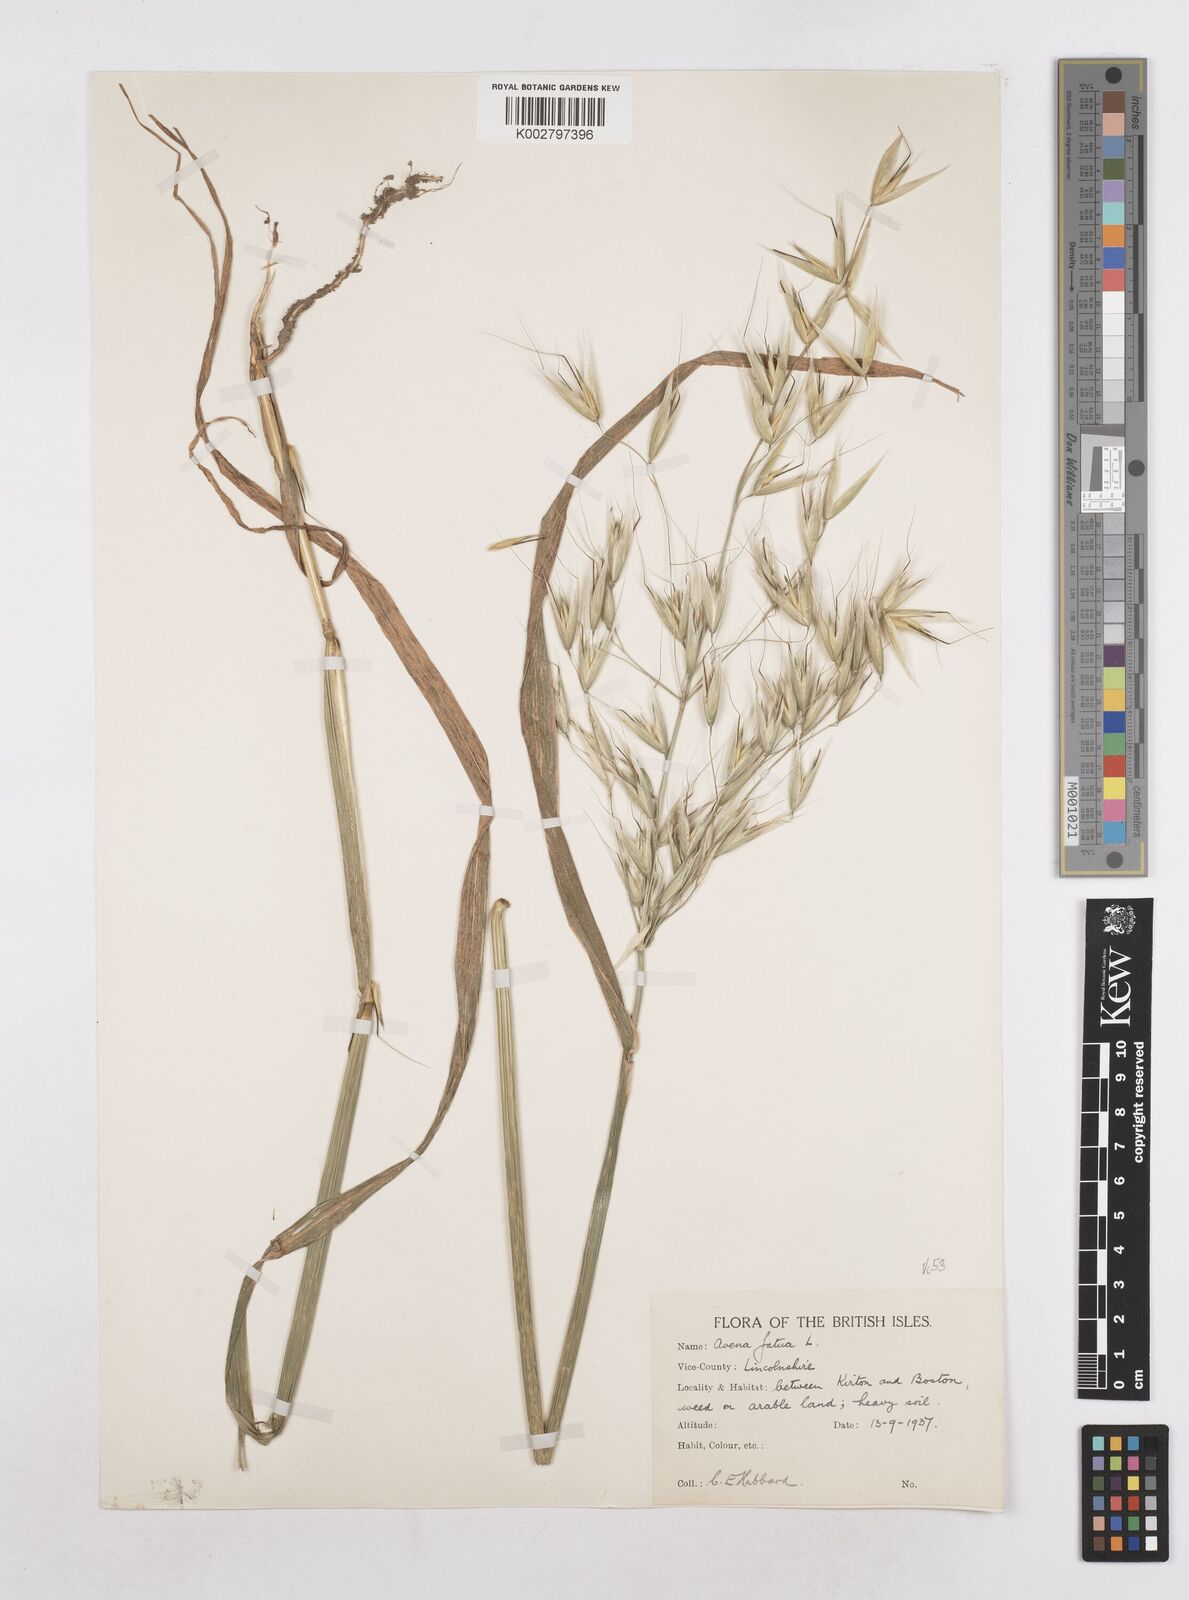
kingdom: Plantae
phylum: Tracheophyta
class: Liliopsida
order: Poales
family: Poaceae
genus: Avena
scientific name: Avena fatua
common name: Wild oat
